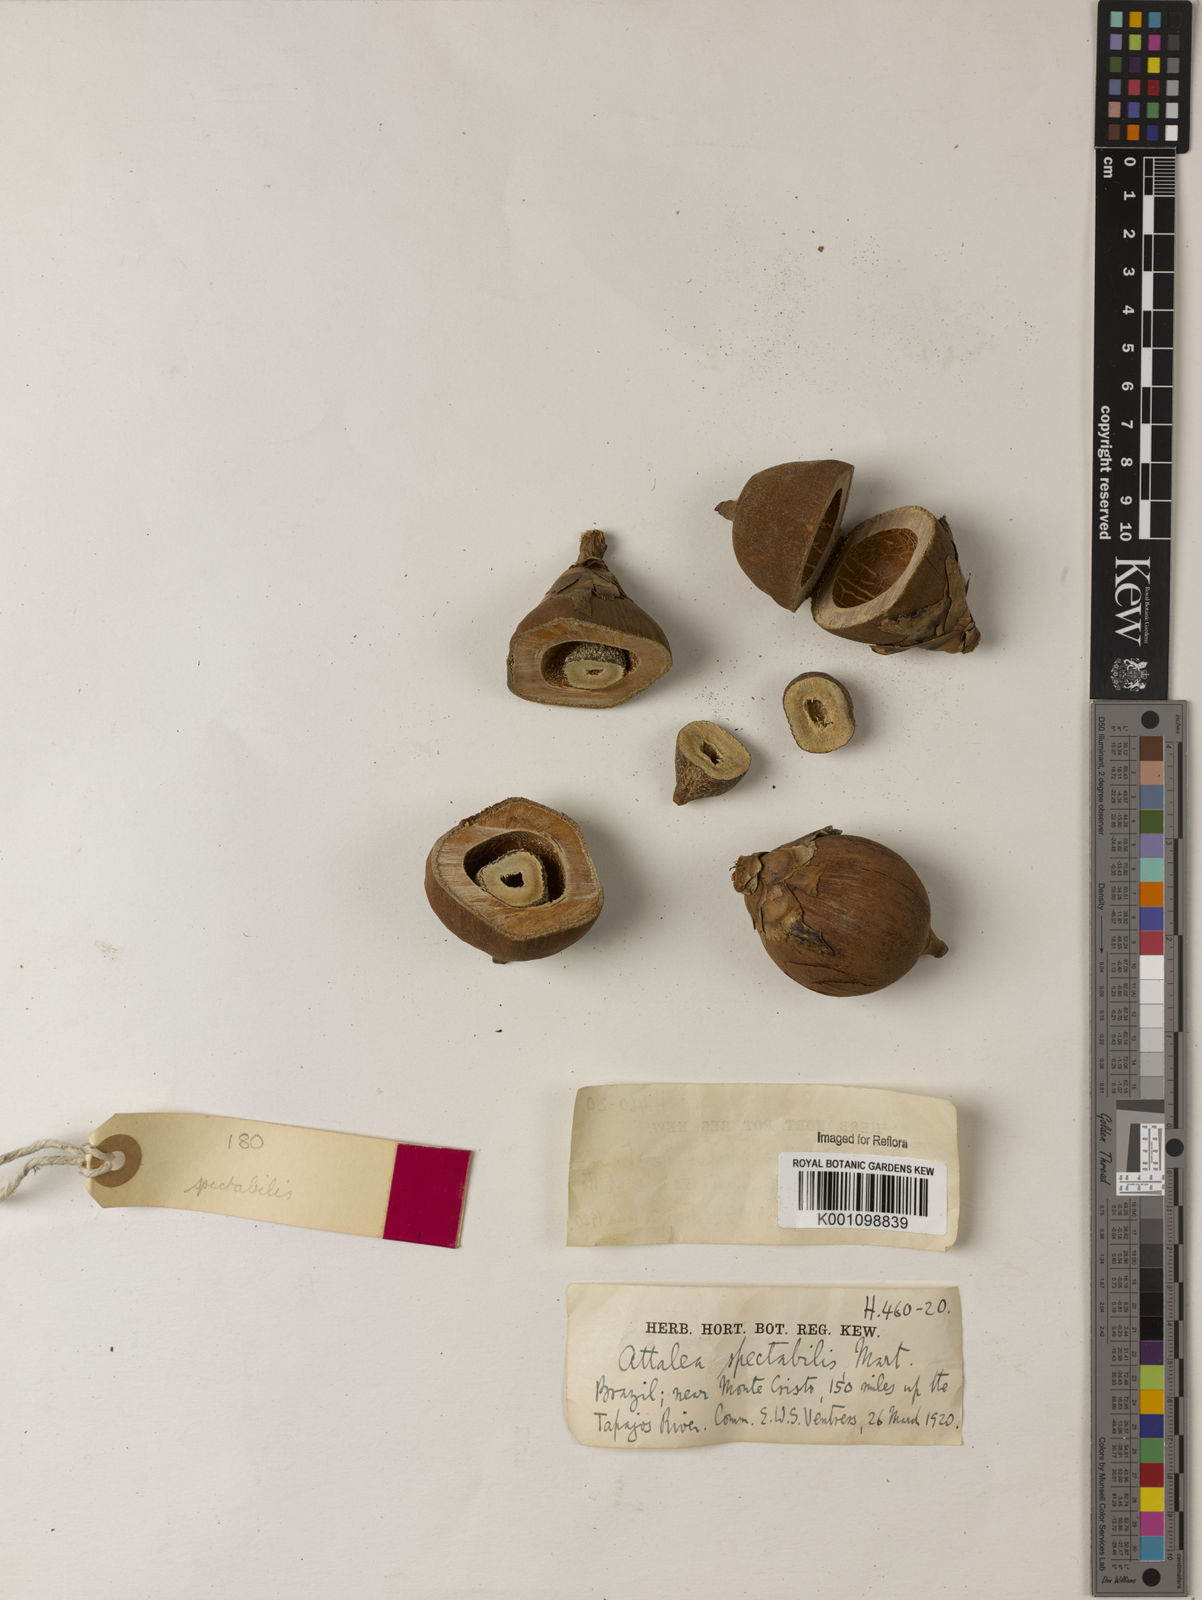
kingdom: Plantae
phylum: Tracheophyta
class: Liliopsida
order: Arecales
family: Arecaceae
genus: Attalea
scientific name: Attalea spectabilis
